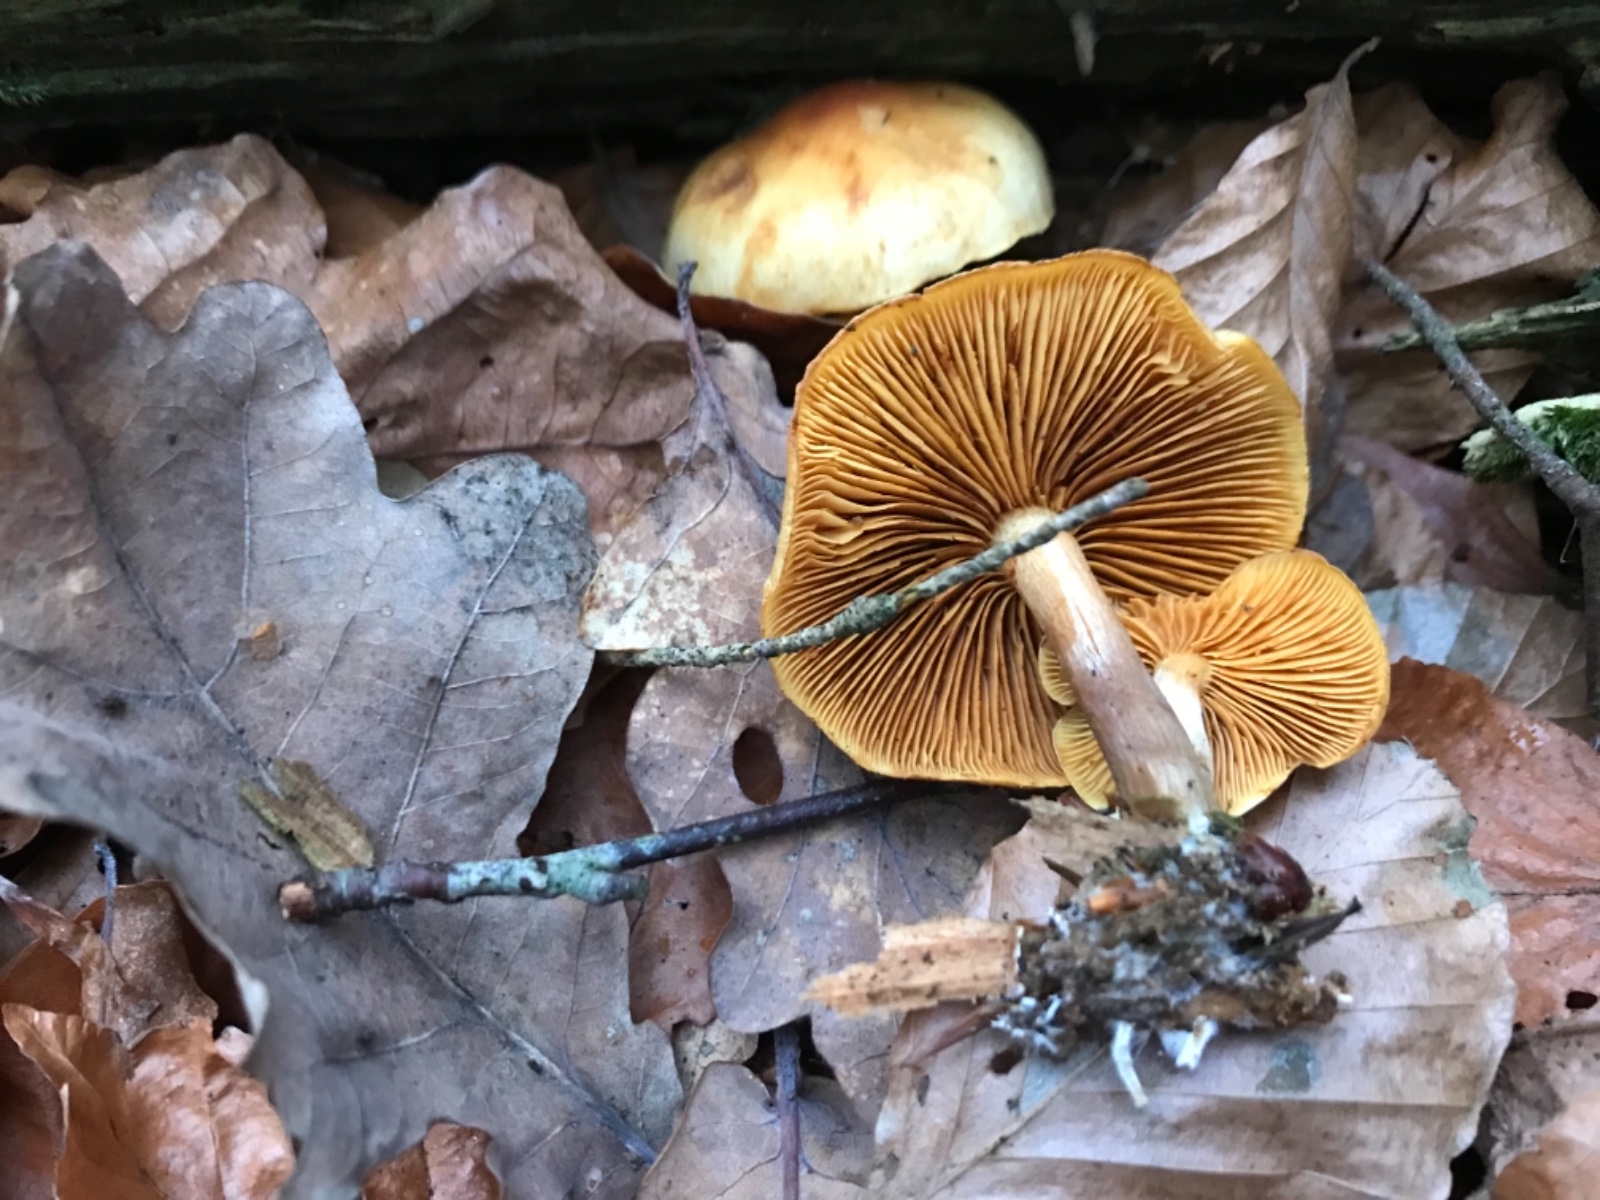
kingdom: Fungi
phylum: Basidiomycota
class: Agaricomycetes
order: Agaricales
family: Hymenogastraceae
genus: Gymnopilus
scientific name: Gymnopilus penetrans
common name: plettet flammehat
